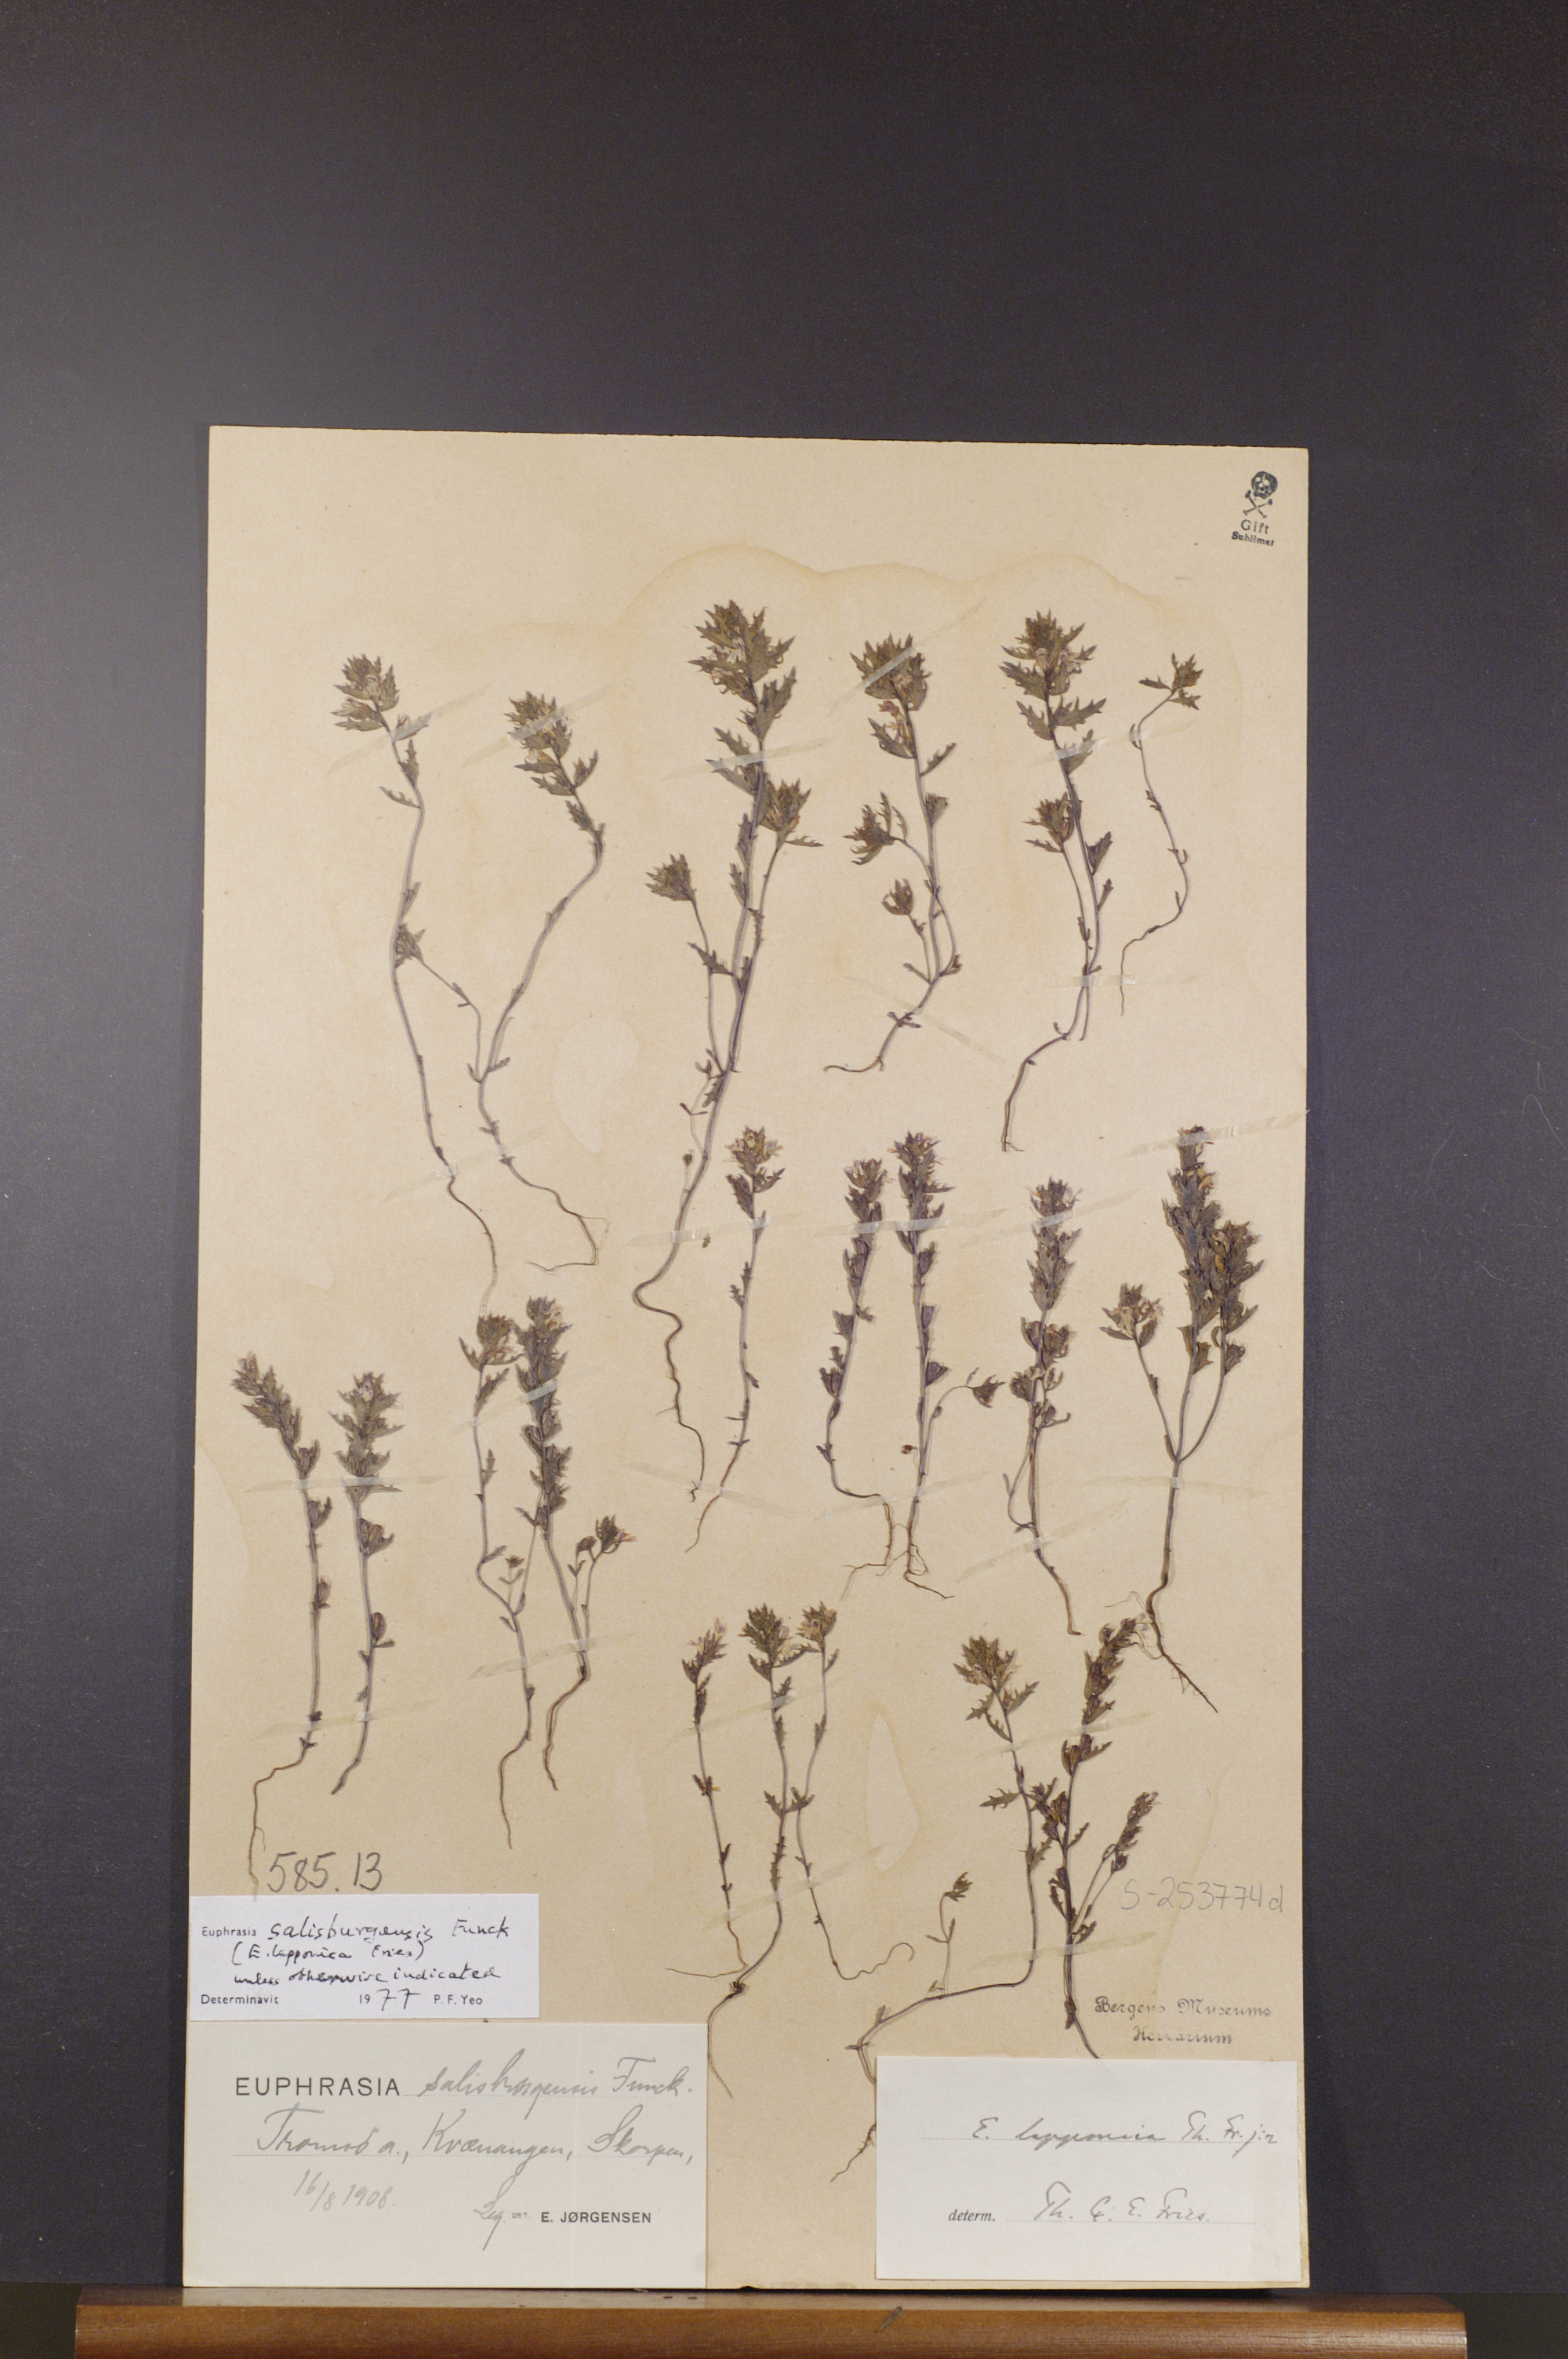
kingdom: Plantae
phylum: Tracheophyta
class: Magnoliopsida
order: Lamiales
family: Orobanchaceae
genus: Euphrasia
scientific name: Euphrasia salisburgensis
